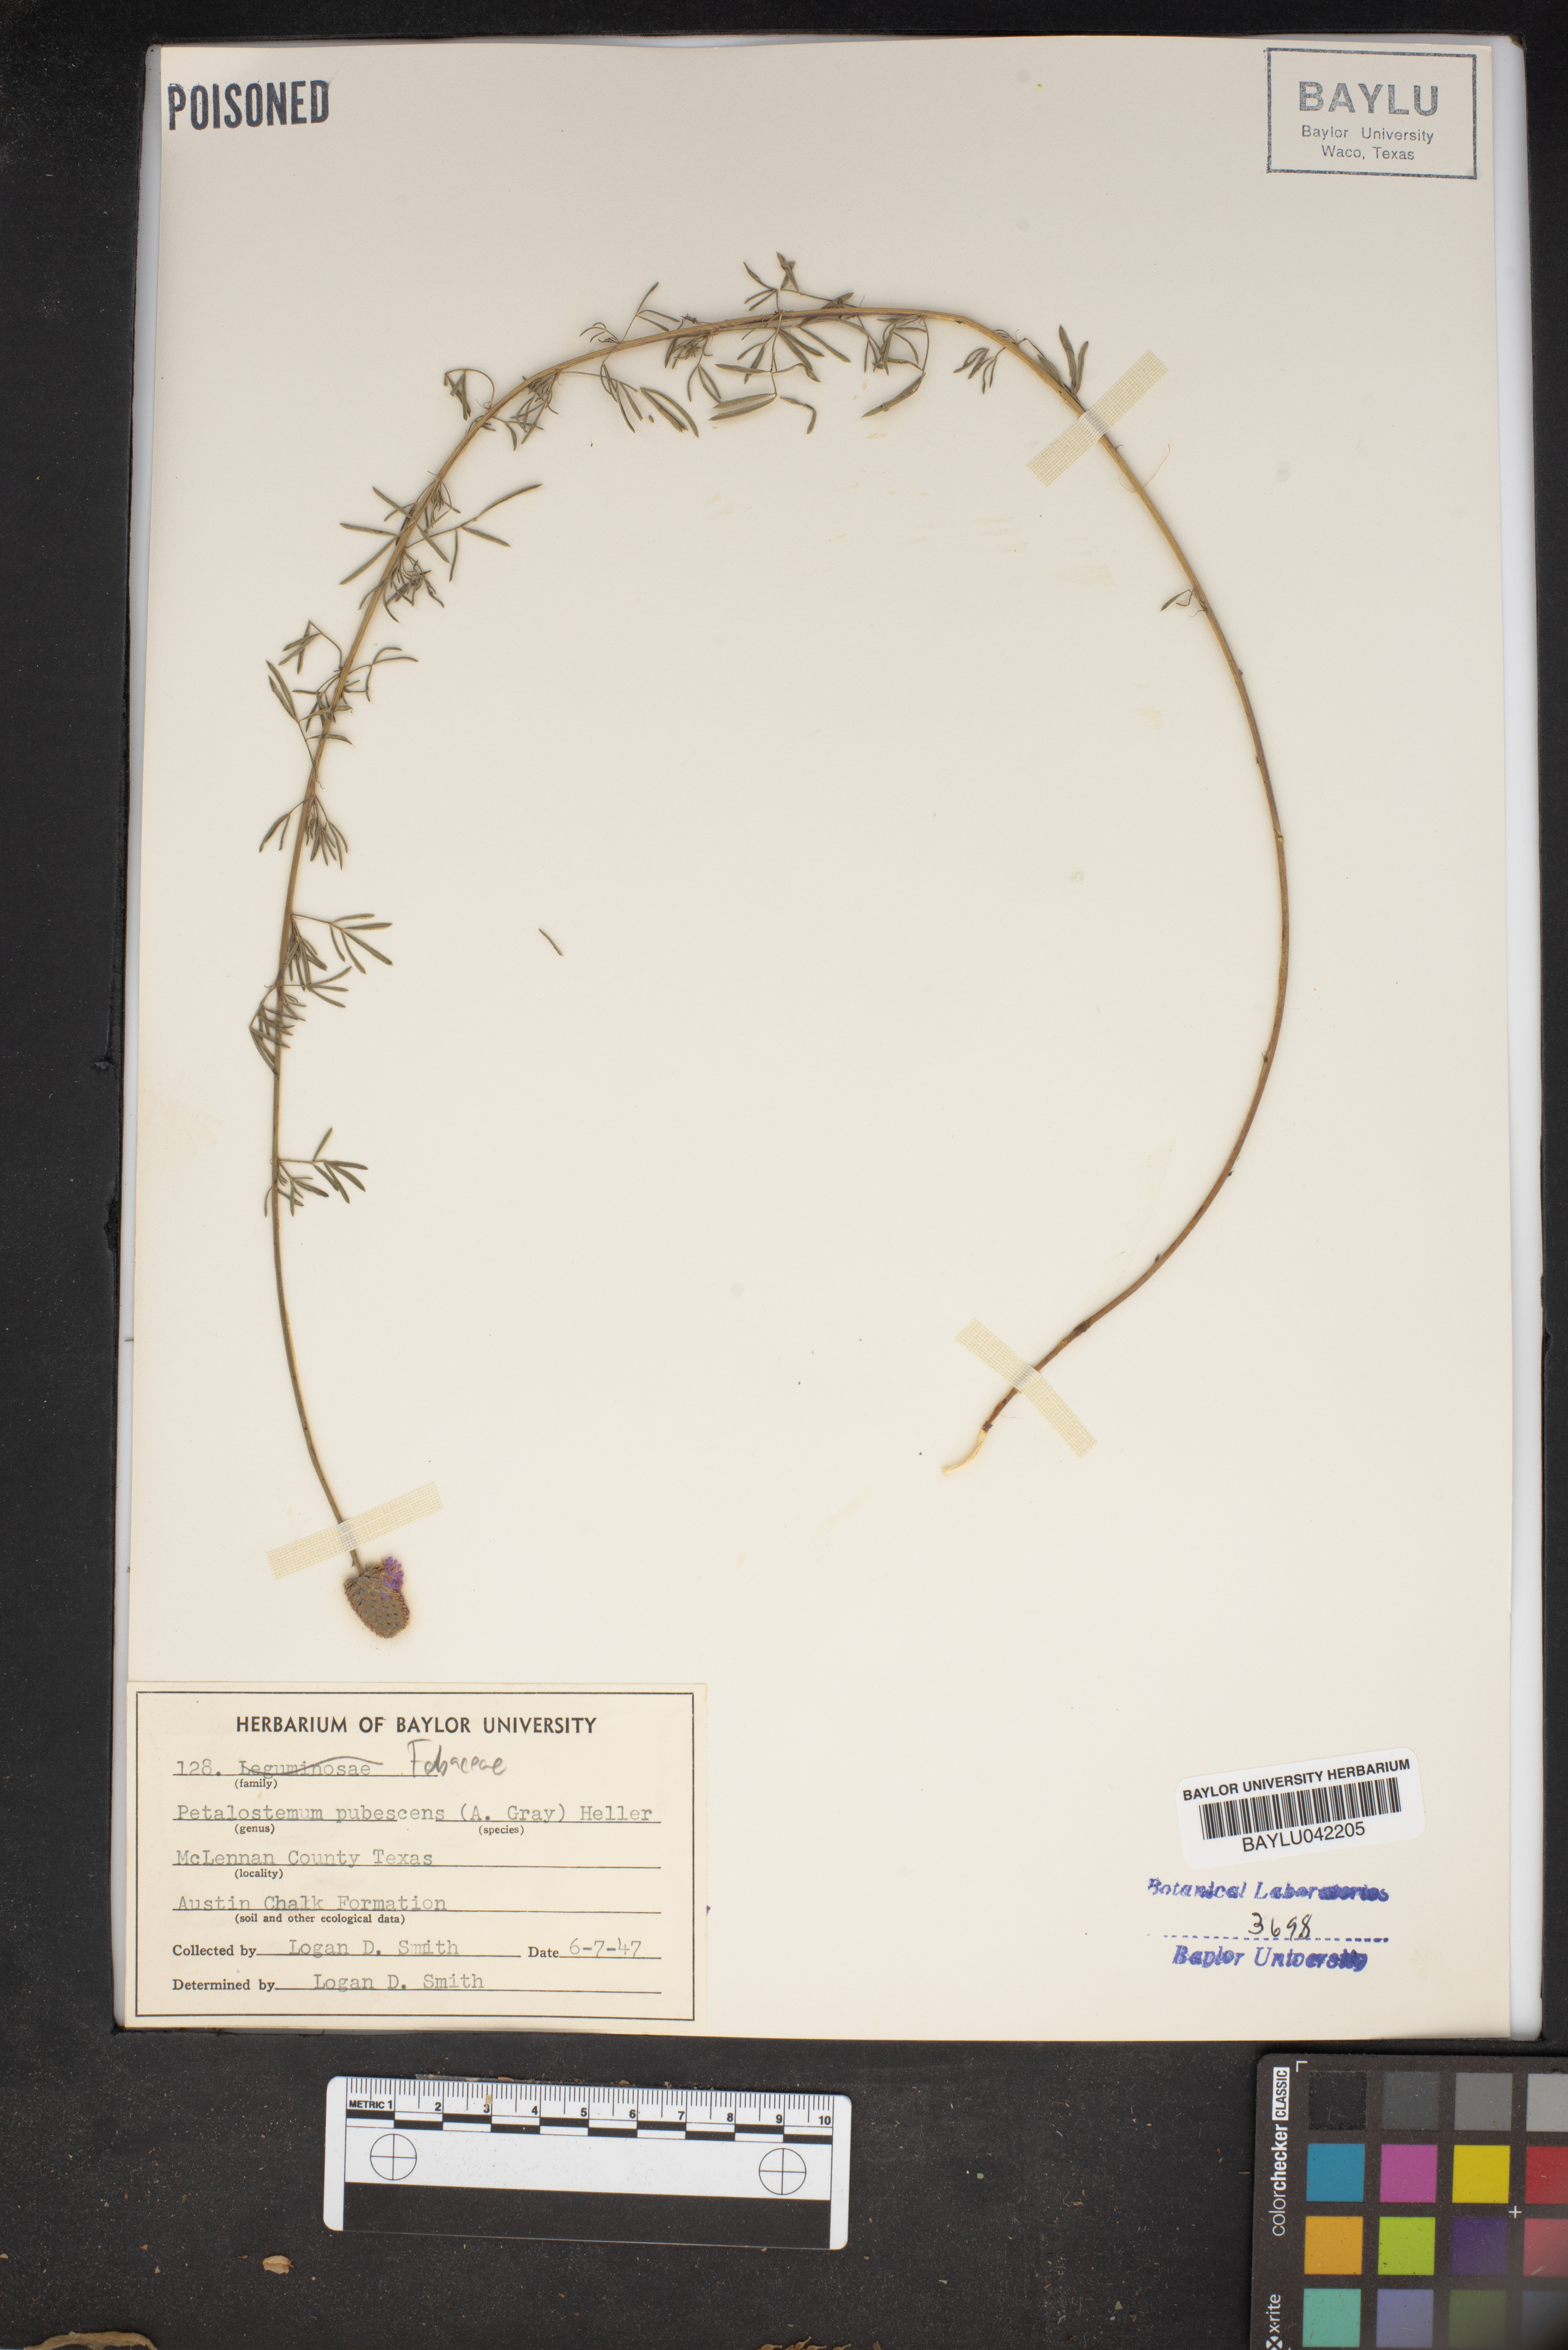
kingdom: Plantae
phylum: Tracheophyta
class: Magnoliopsida
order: Fabales
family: Fabaceae
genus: Dalea
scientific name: Dalea
